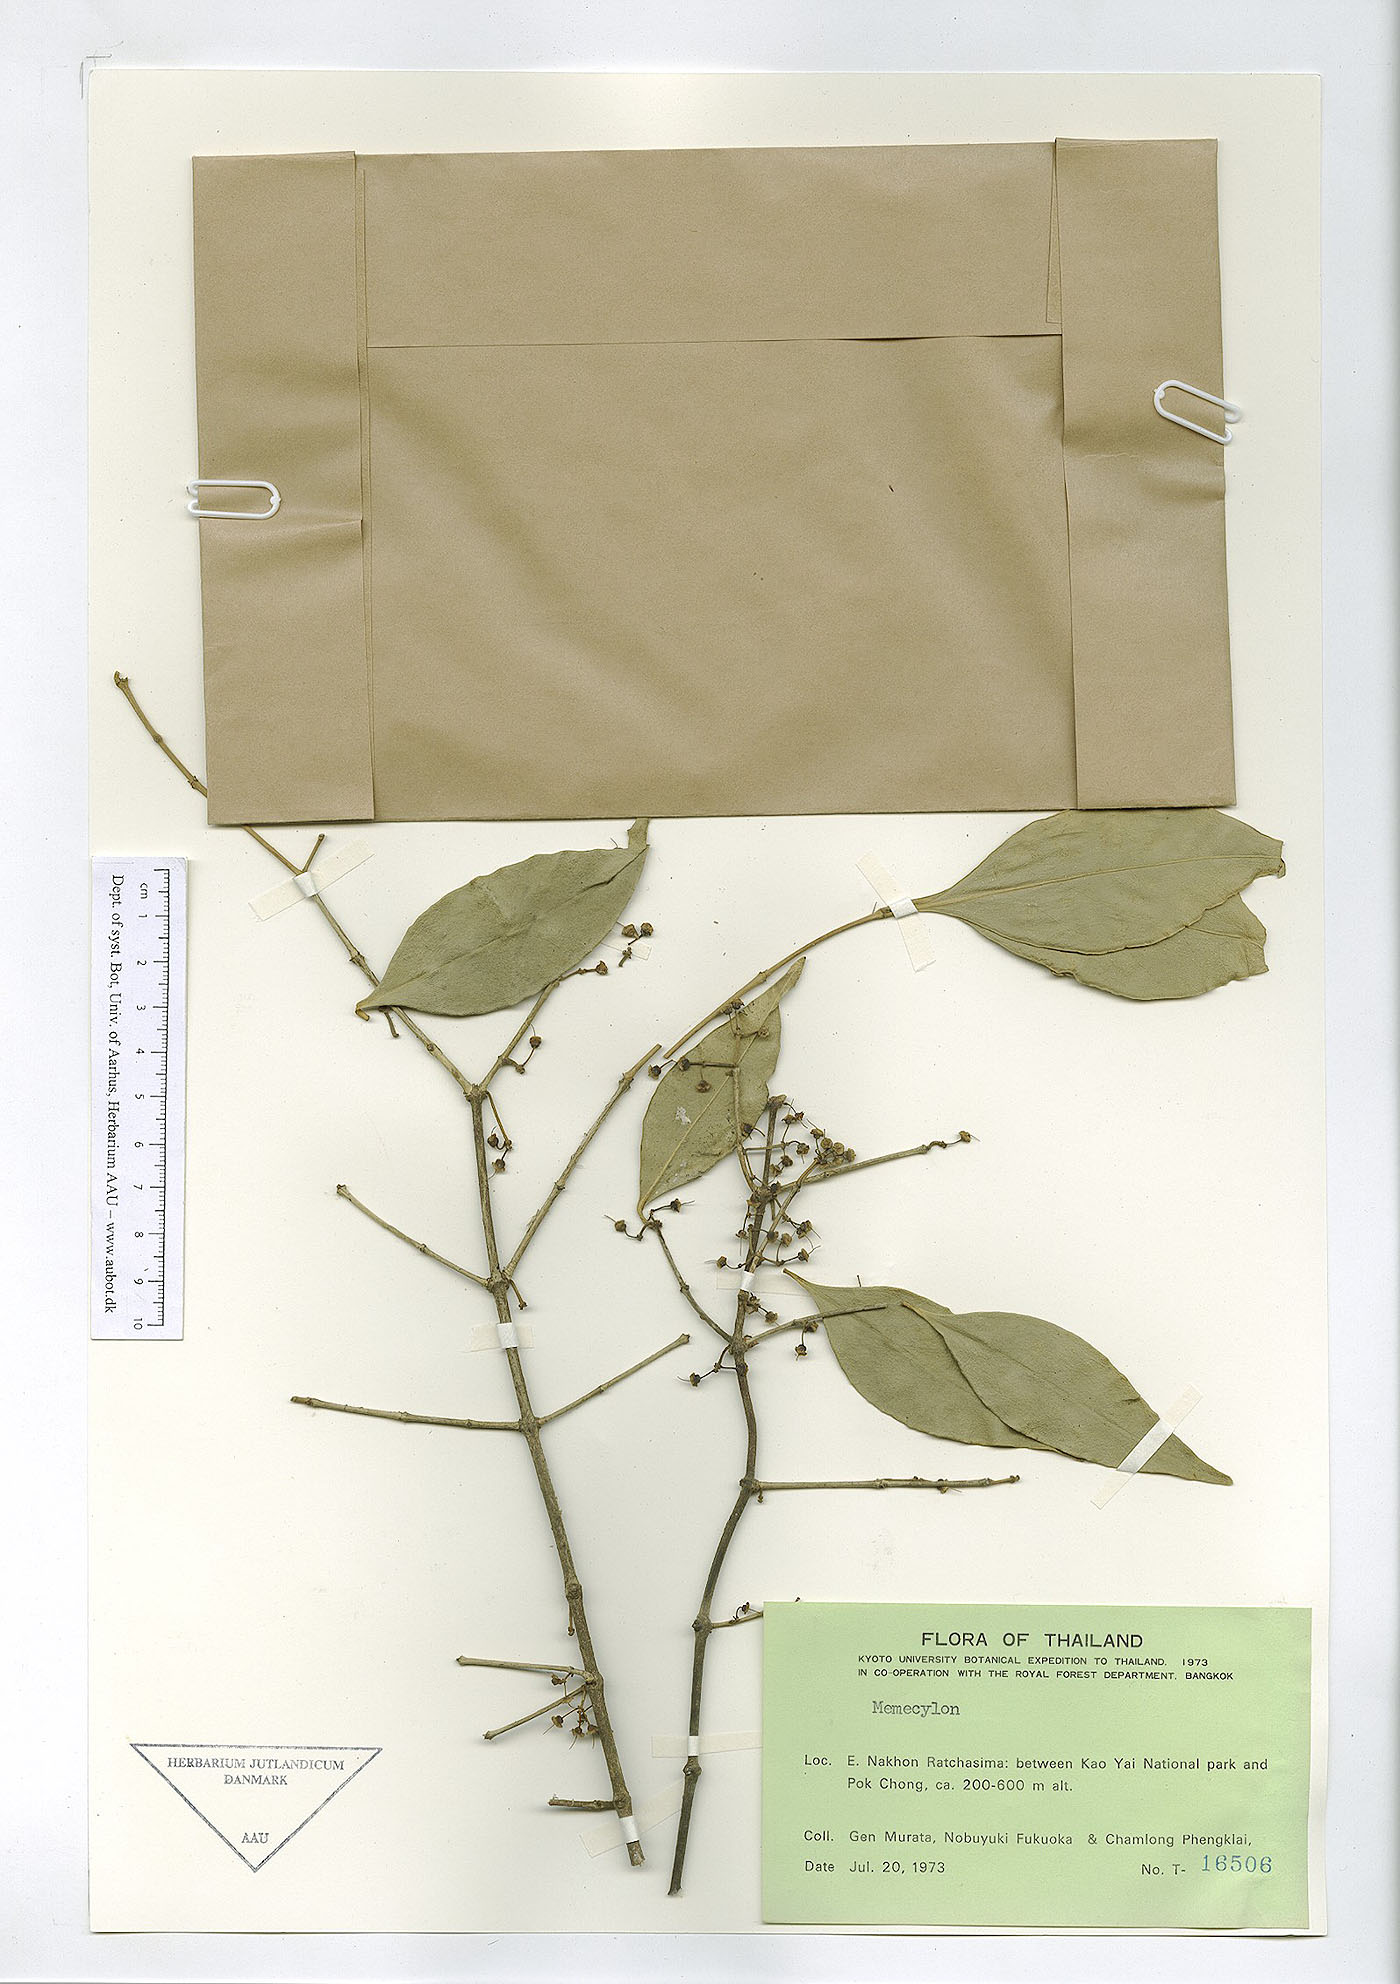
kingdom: Plantae
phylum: Tracheophyta
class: Magnoliopsida
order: Myrtales
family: Melastomataceae
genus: Memecylon
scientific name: Memecylon lanceolatum
